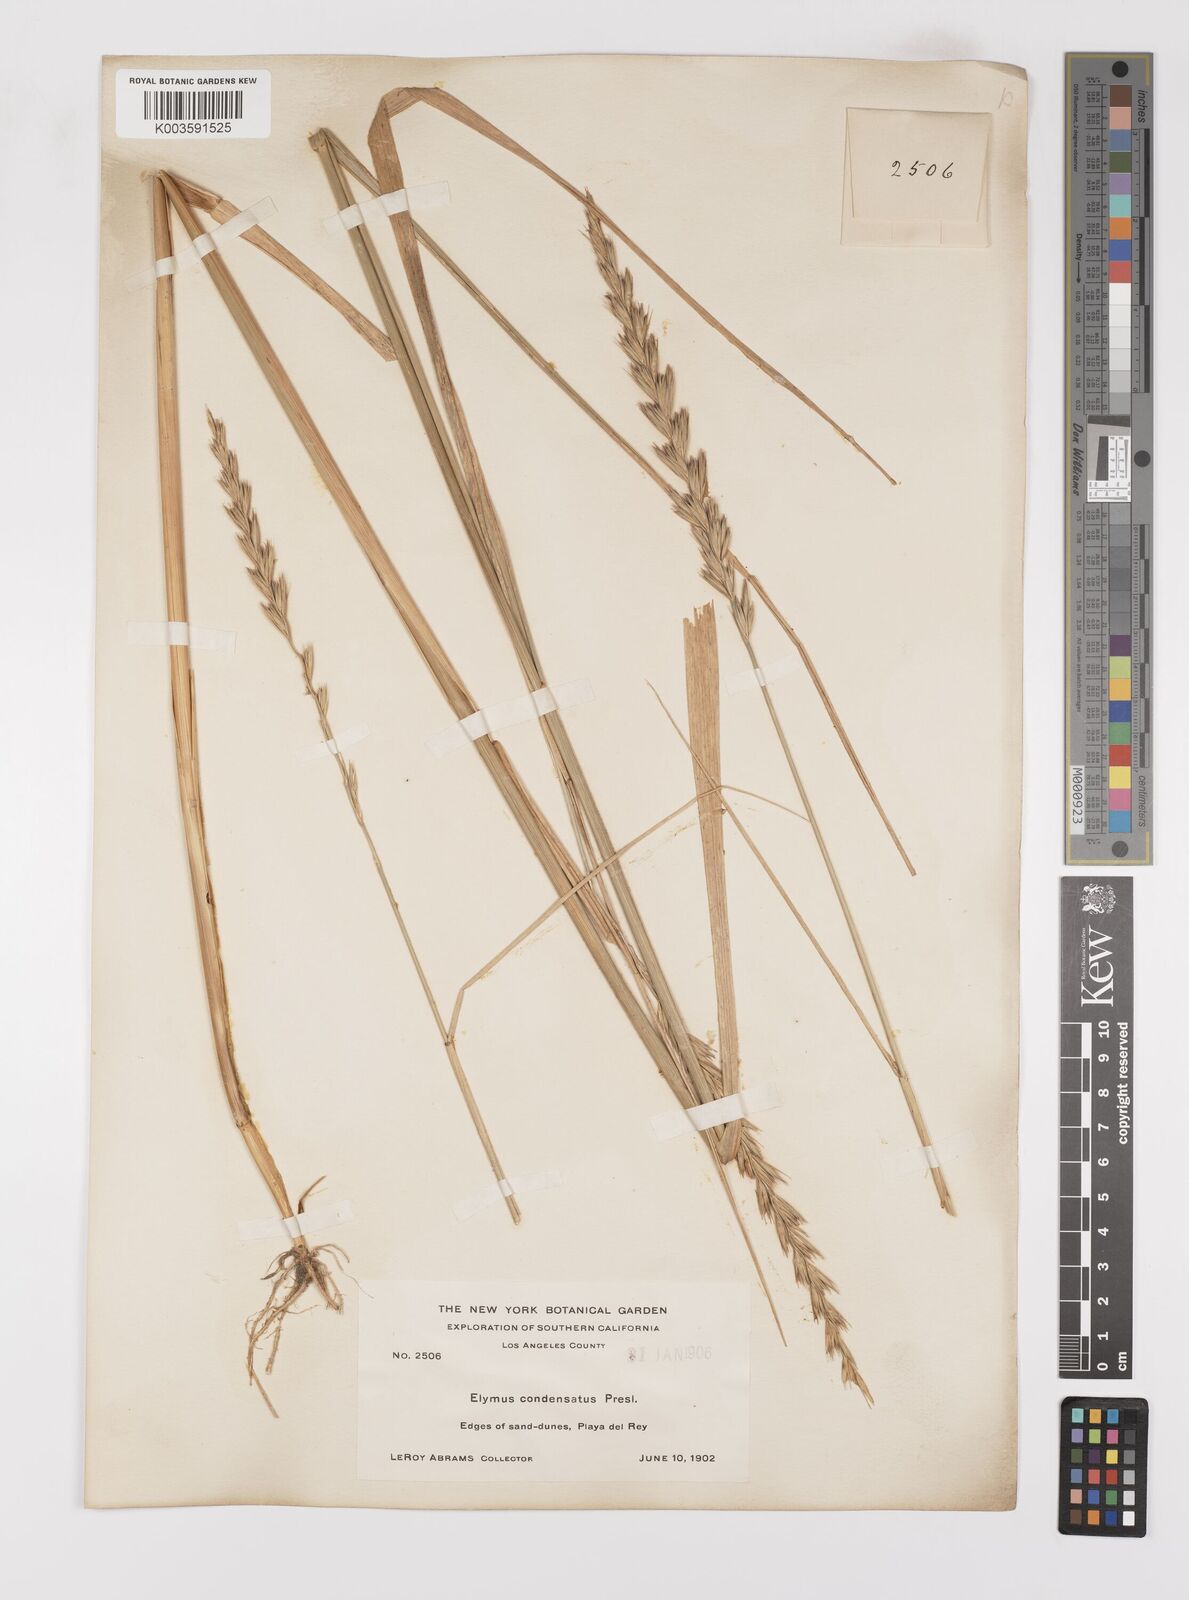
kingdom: Plantae
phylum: Tracheophyta
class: Liliopsida
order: Poales
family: Poaceae
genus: Leymus
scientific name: Leymus condensatus
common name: Giant wild rye
